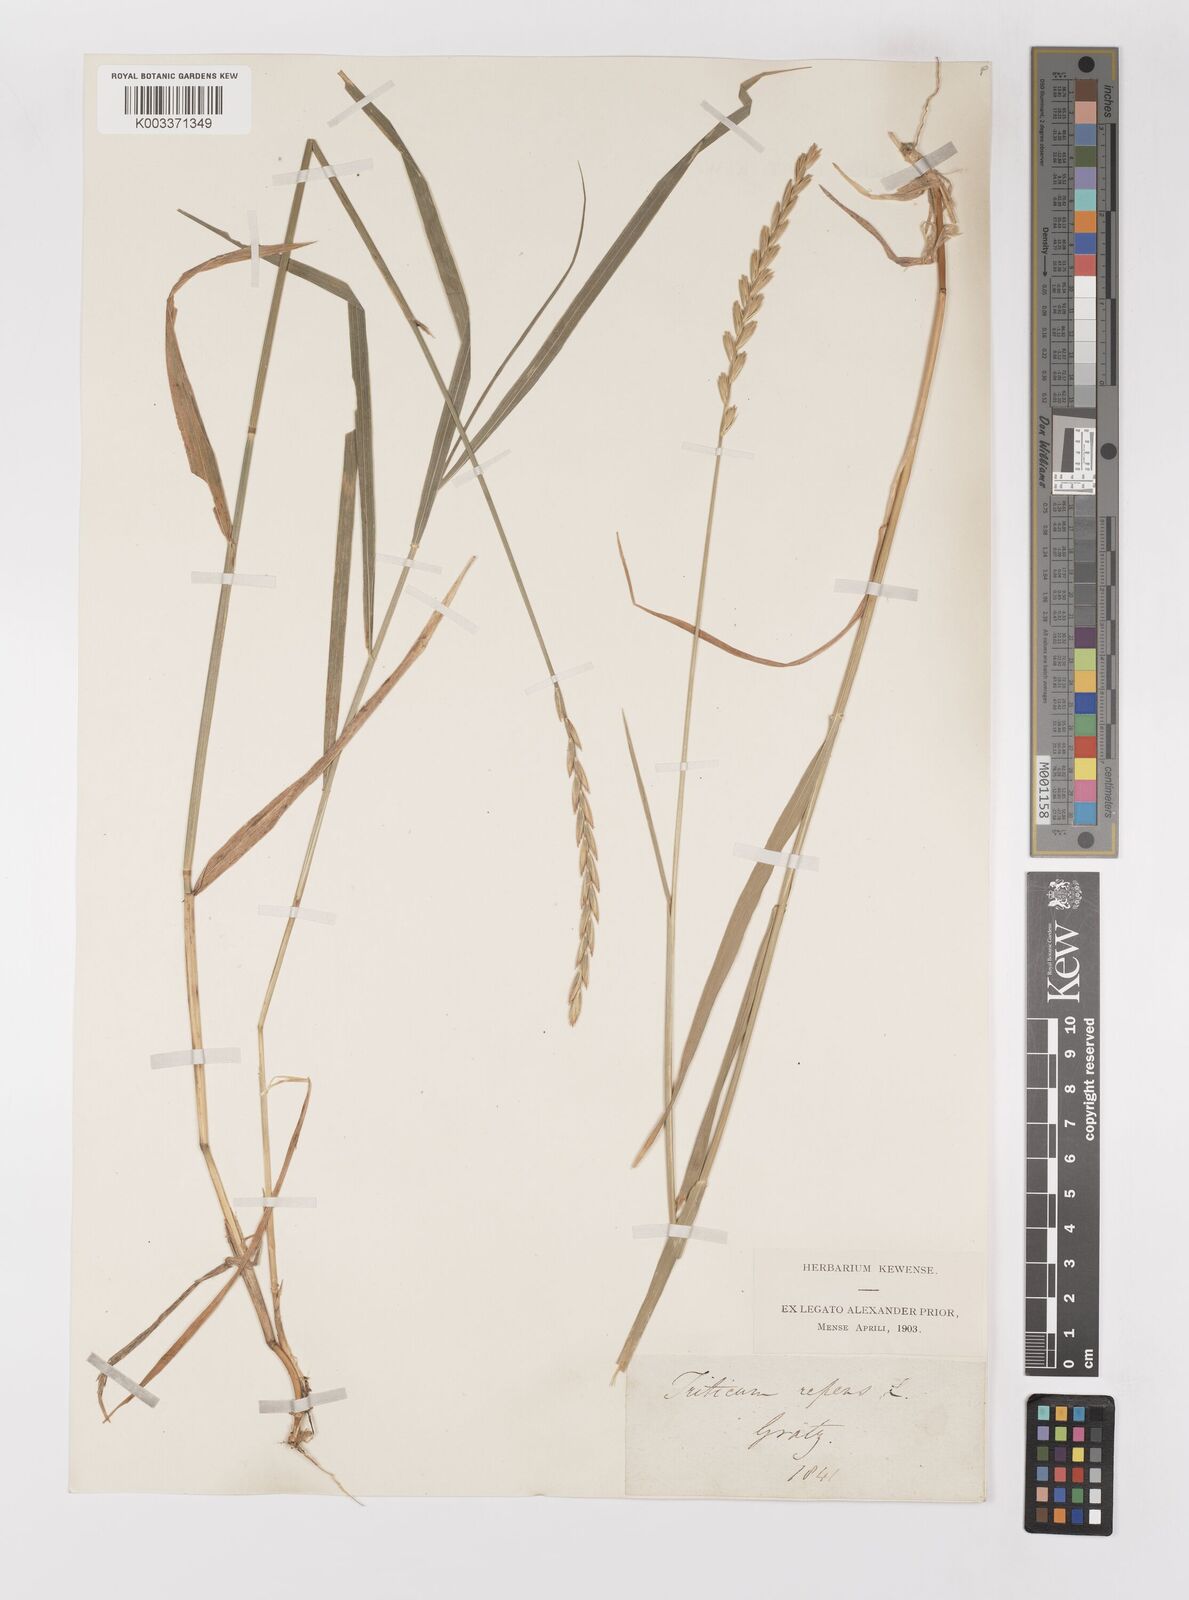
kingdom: Plantae
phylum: Tracheophyta
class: Liliopsida
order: Poales
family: Poaceae
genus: Elymus
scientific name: Elymus repens
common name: Quackgrass
